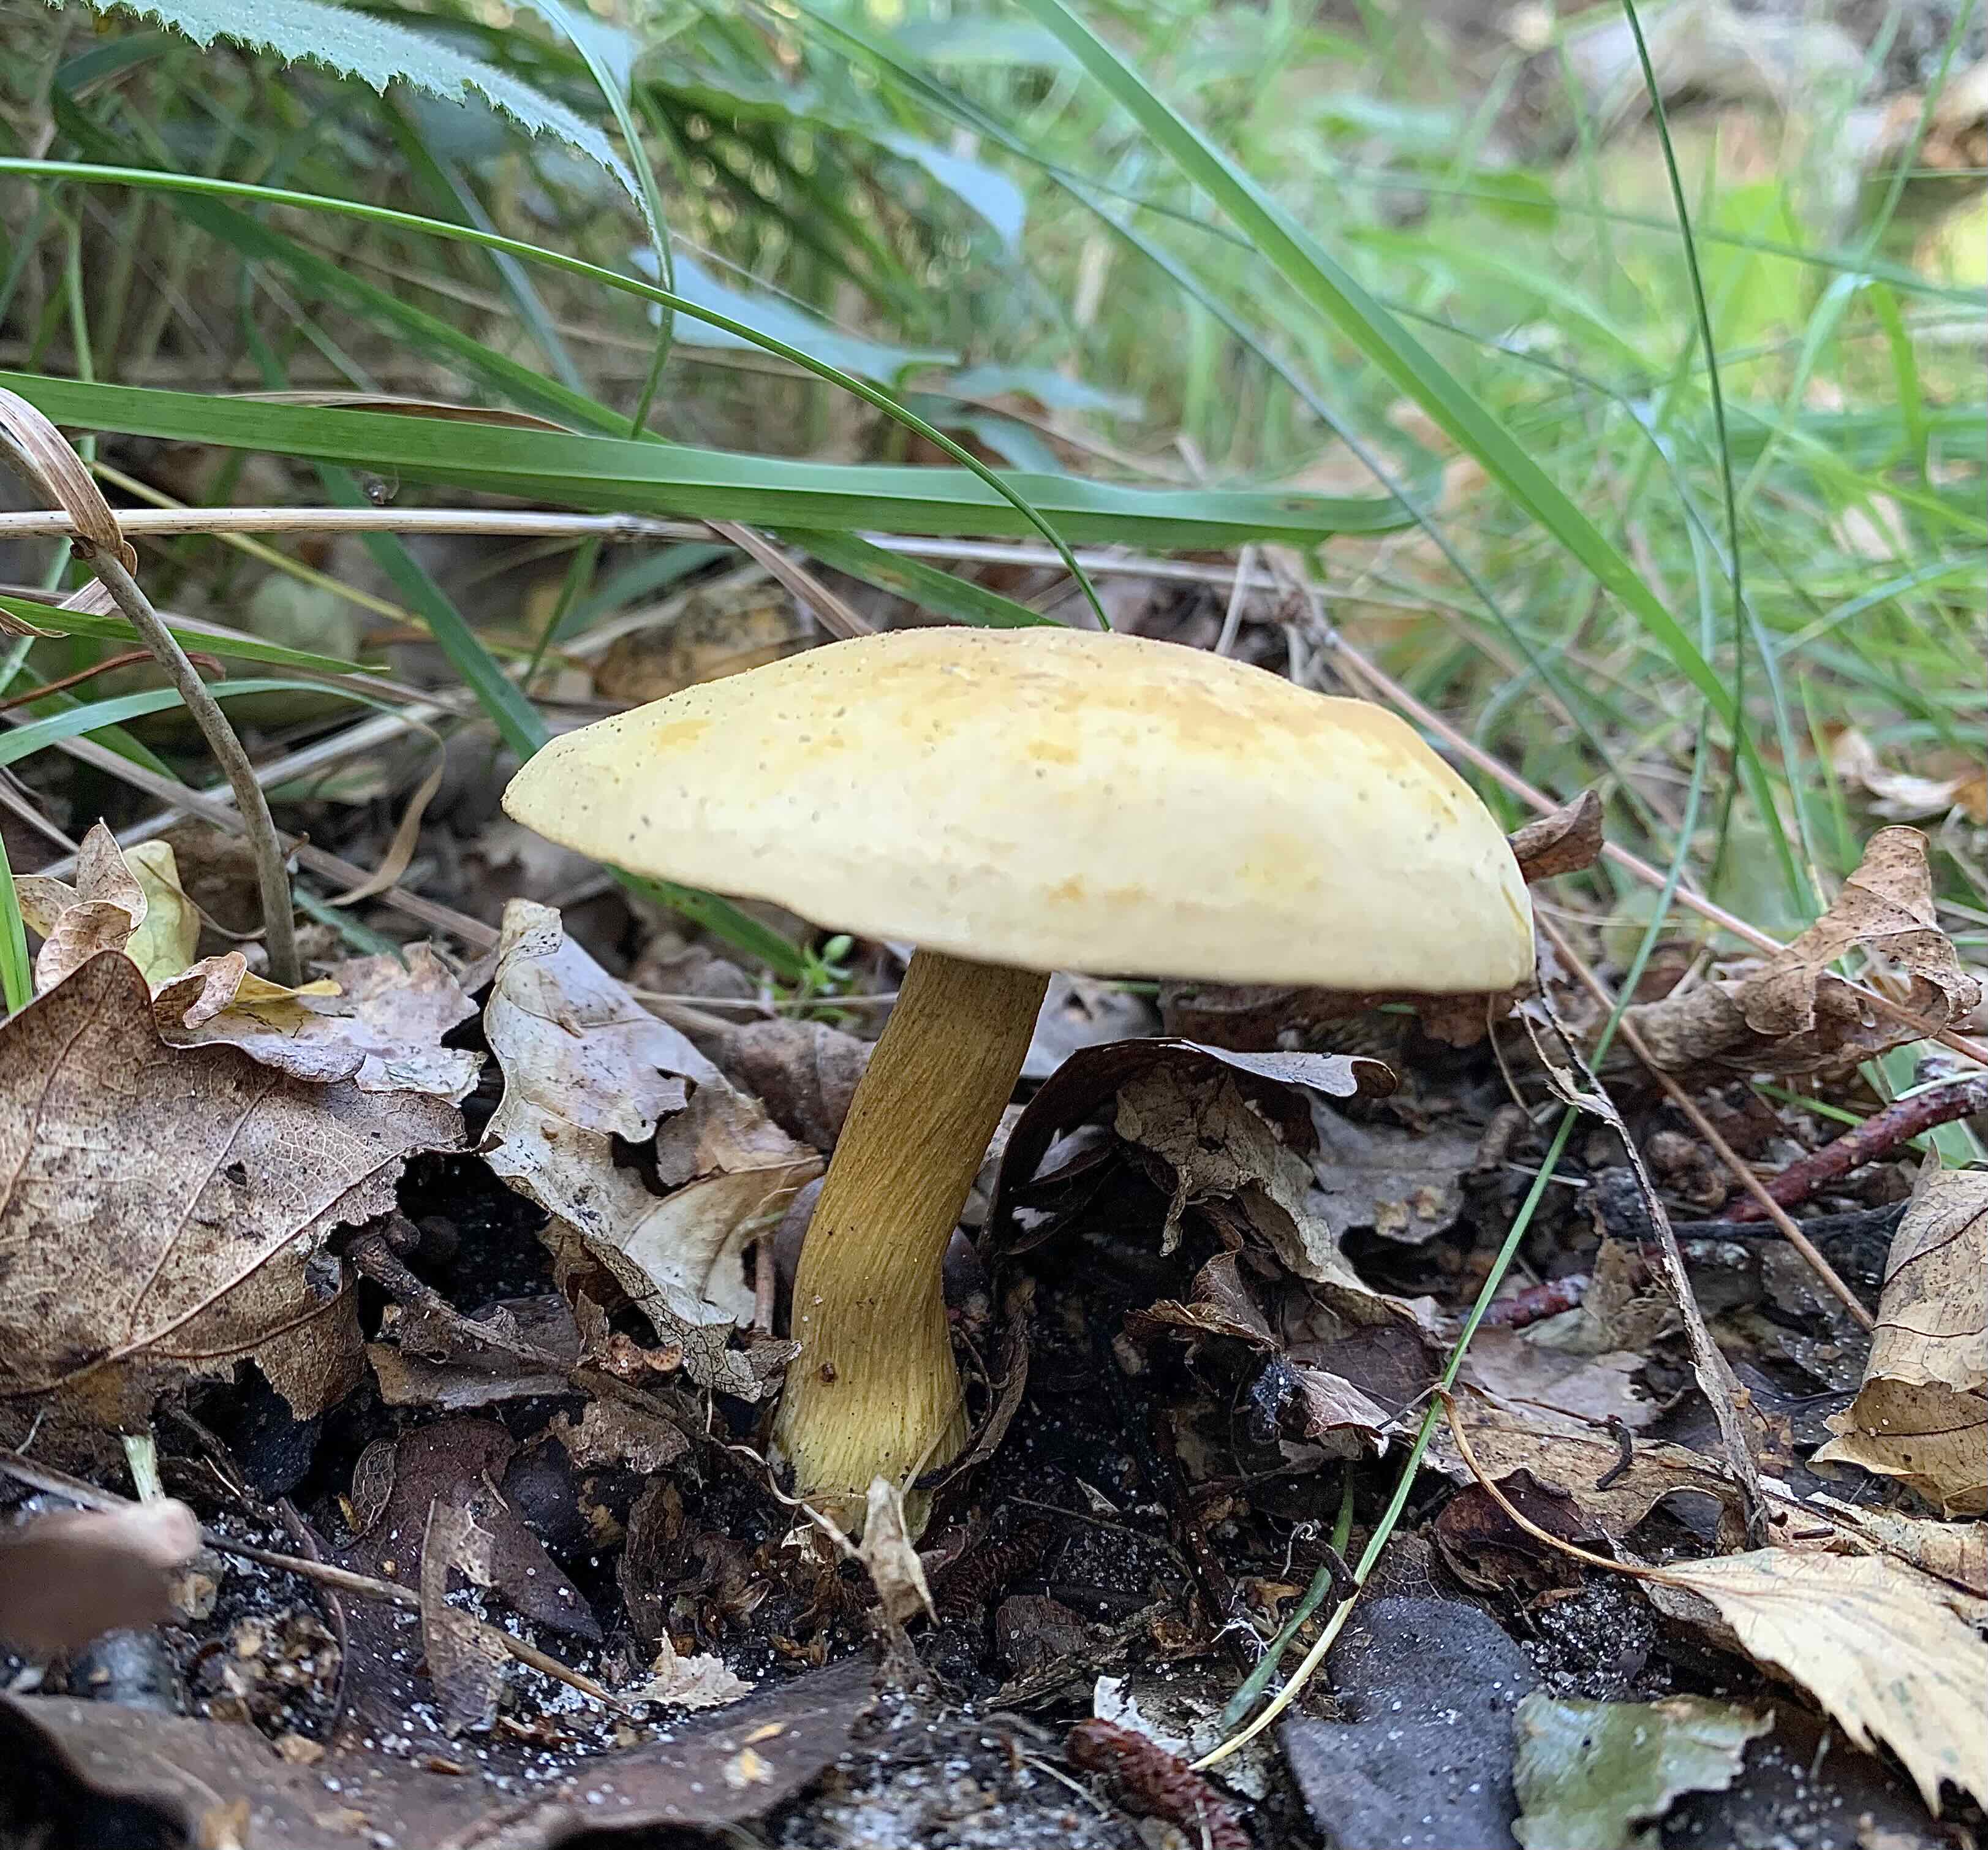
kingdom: Fungi
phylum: Basidiomycota
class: Agaricomycetes
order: Agaricales
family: Tricholomataceae
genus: Tricholoma
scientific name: Tricholoma sulphureum
